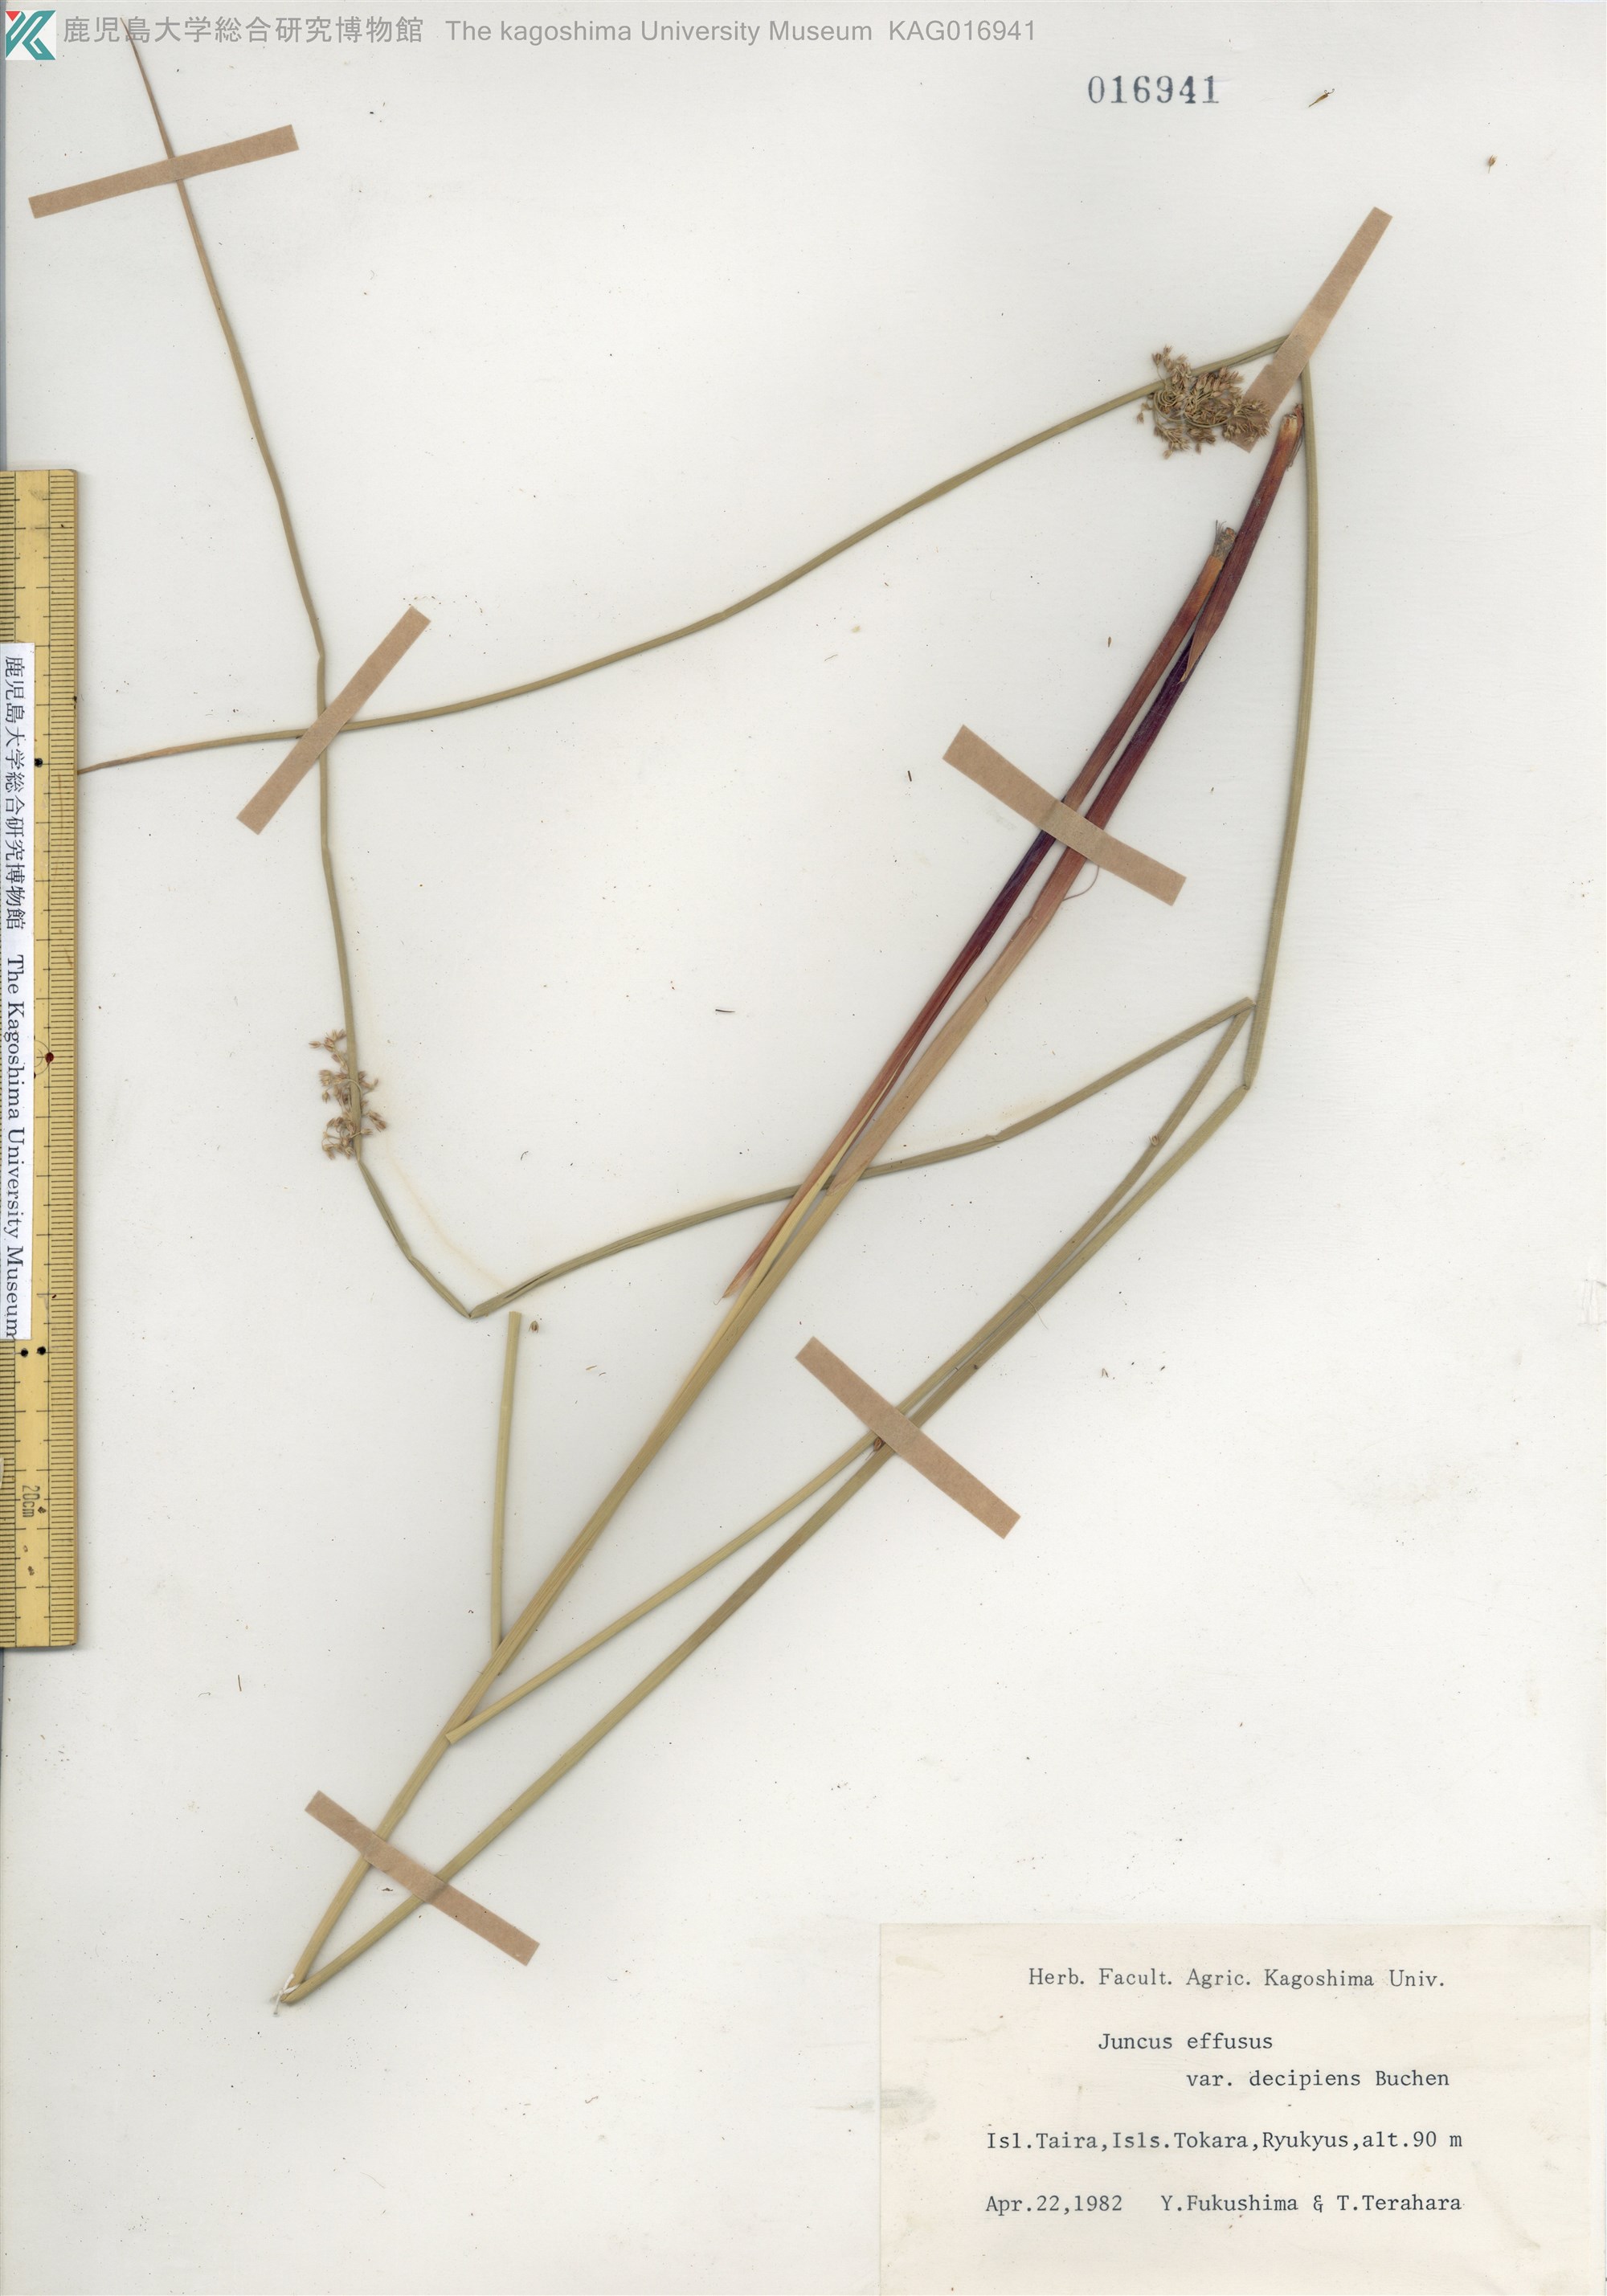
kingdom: Plantae
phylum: Tracheophyta
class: Liliopsida
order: Poales
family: Juncaceae
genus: Juncus
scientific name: Juncus decipiens
